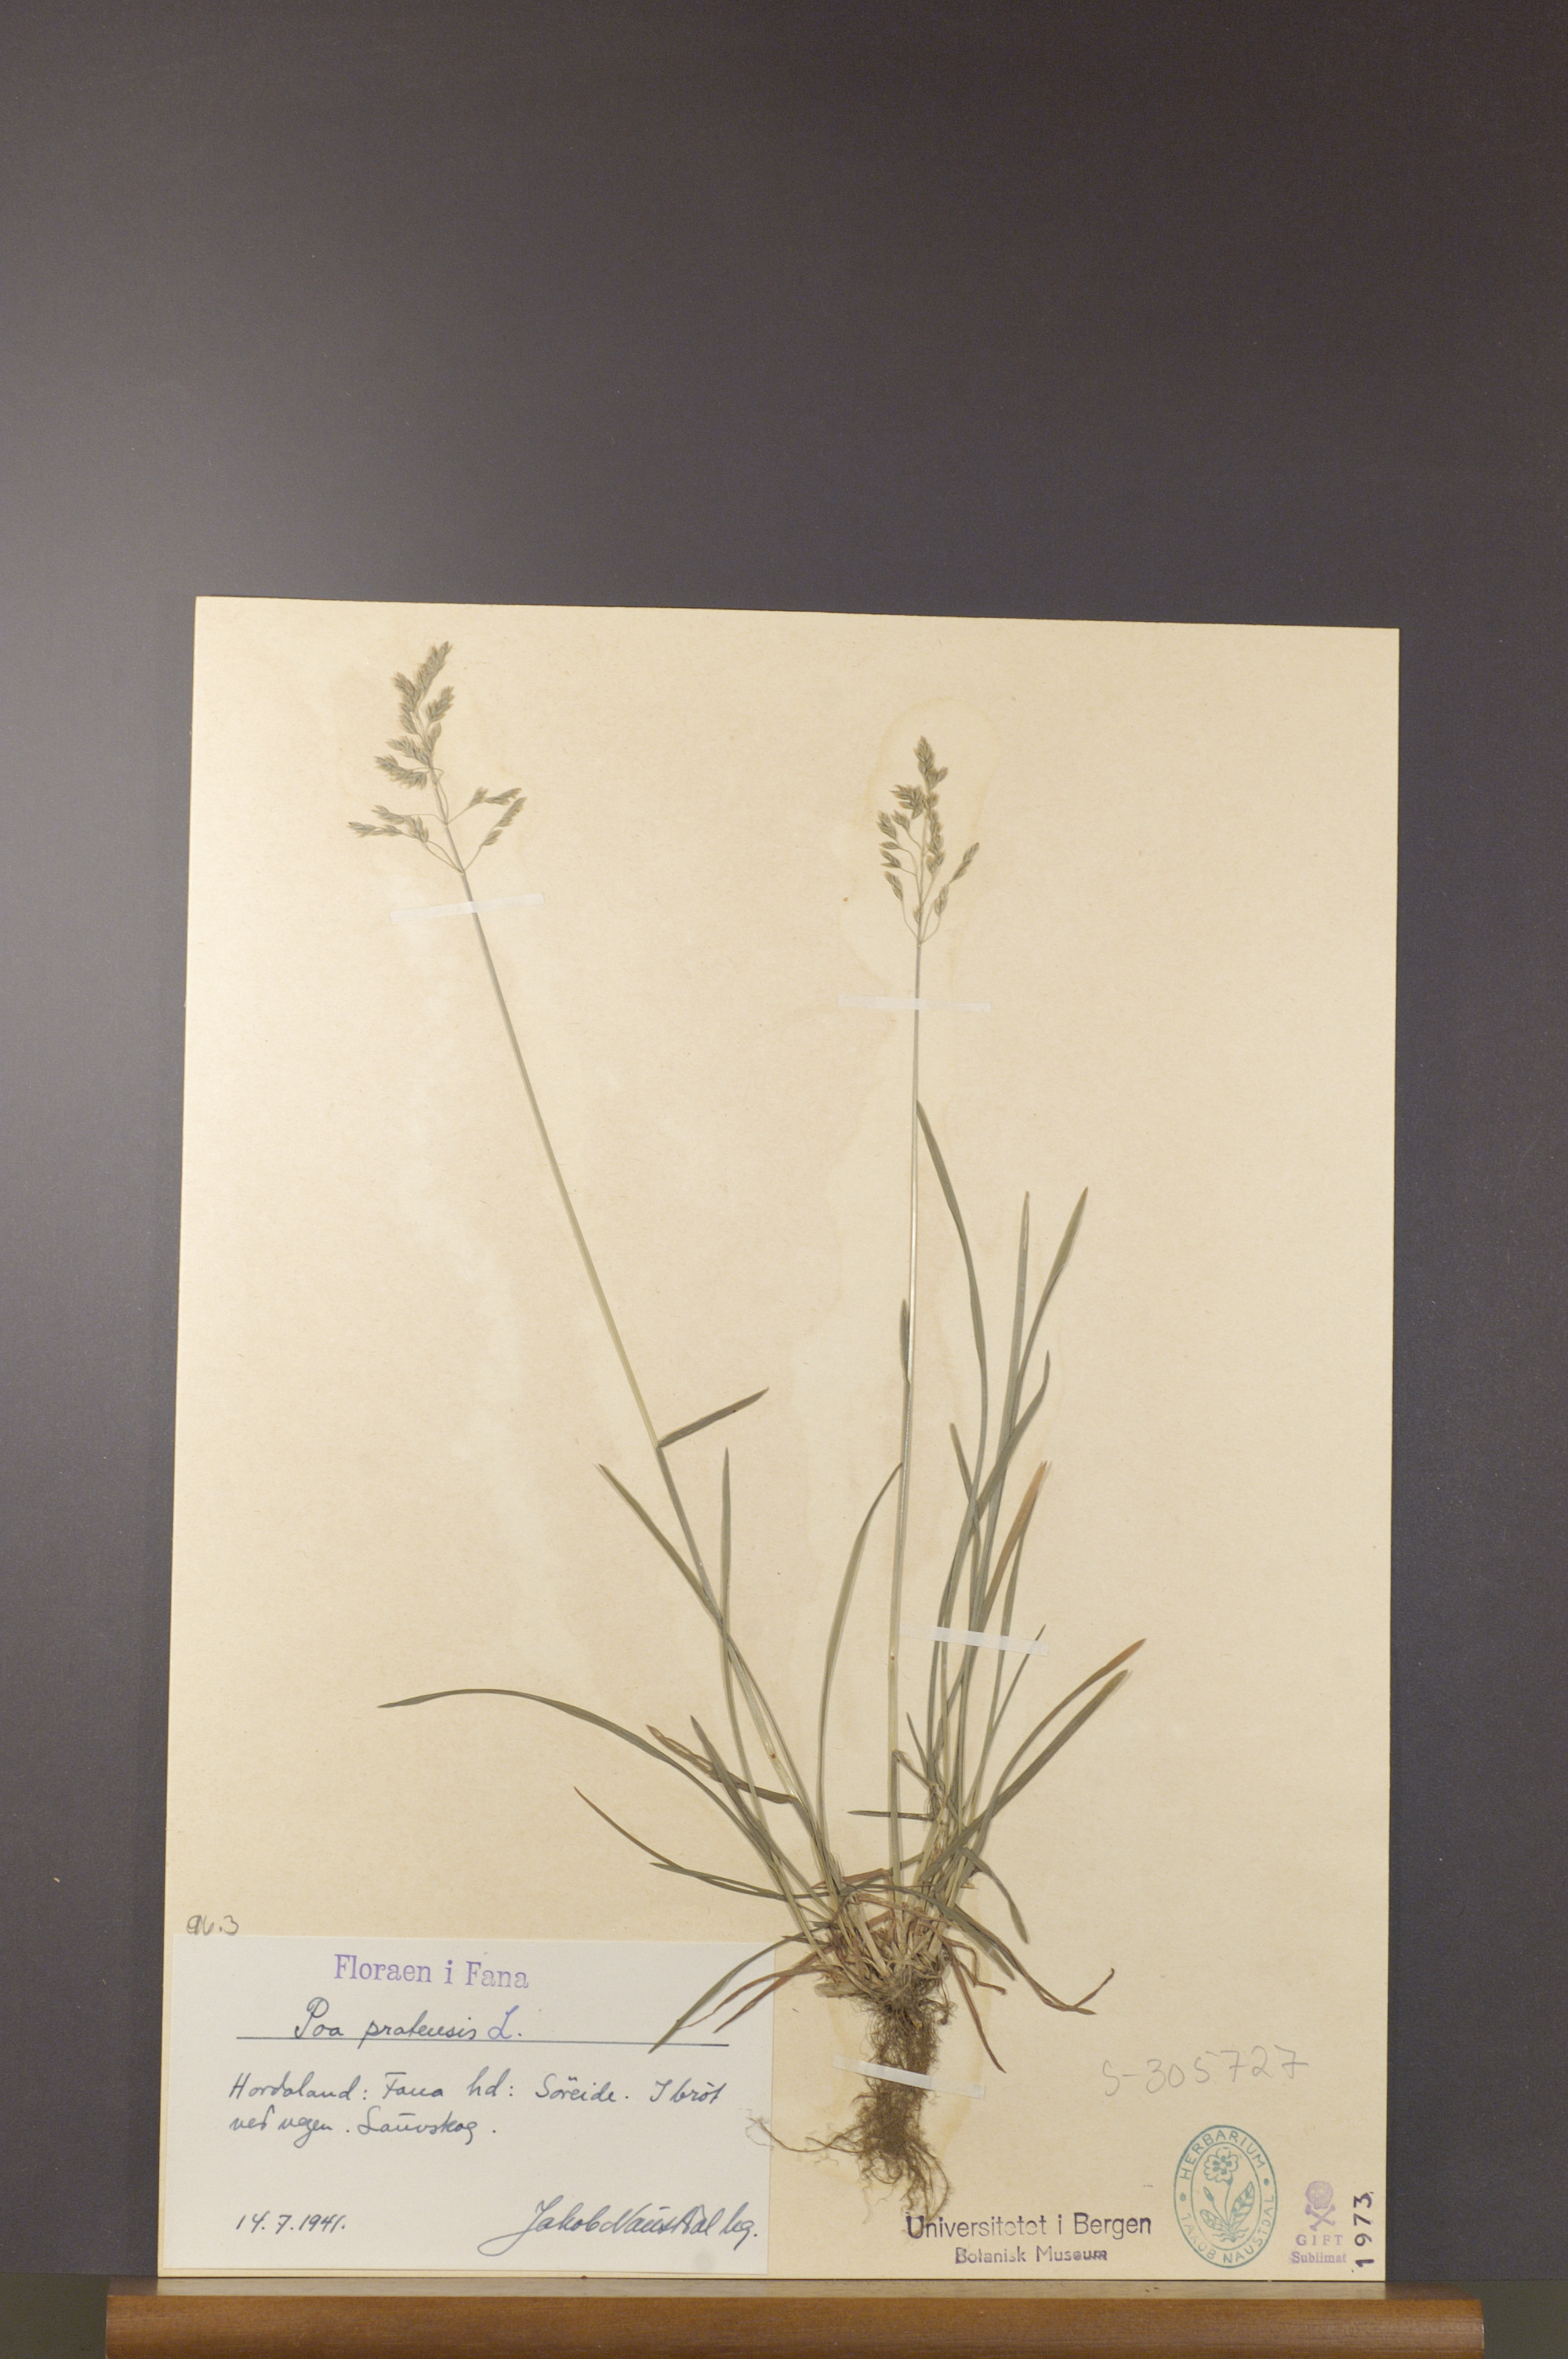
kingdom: Plantae
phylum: Tracheophyta
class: Liliopsida
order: Poales
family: Poaceae
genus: Poa
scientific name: Poa pratensis
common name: Kentucky bluegrass
